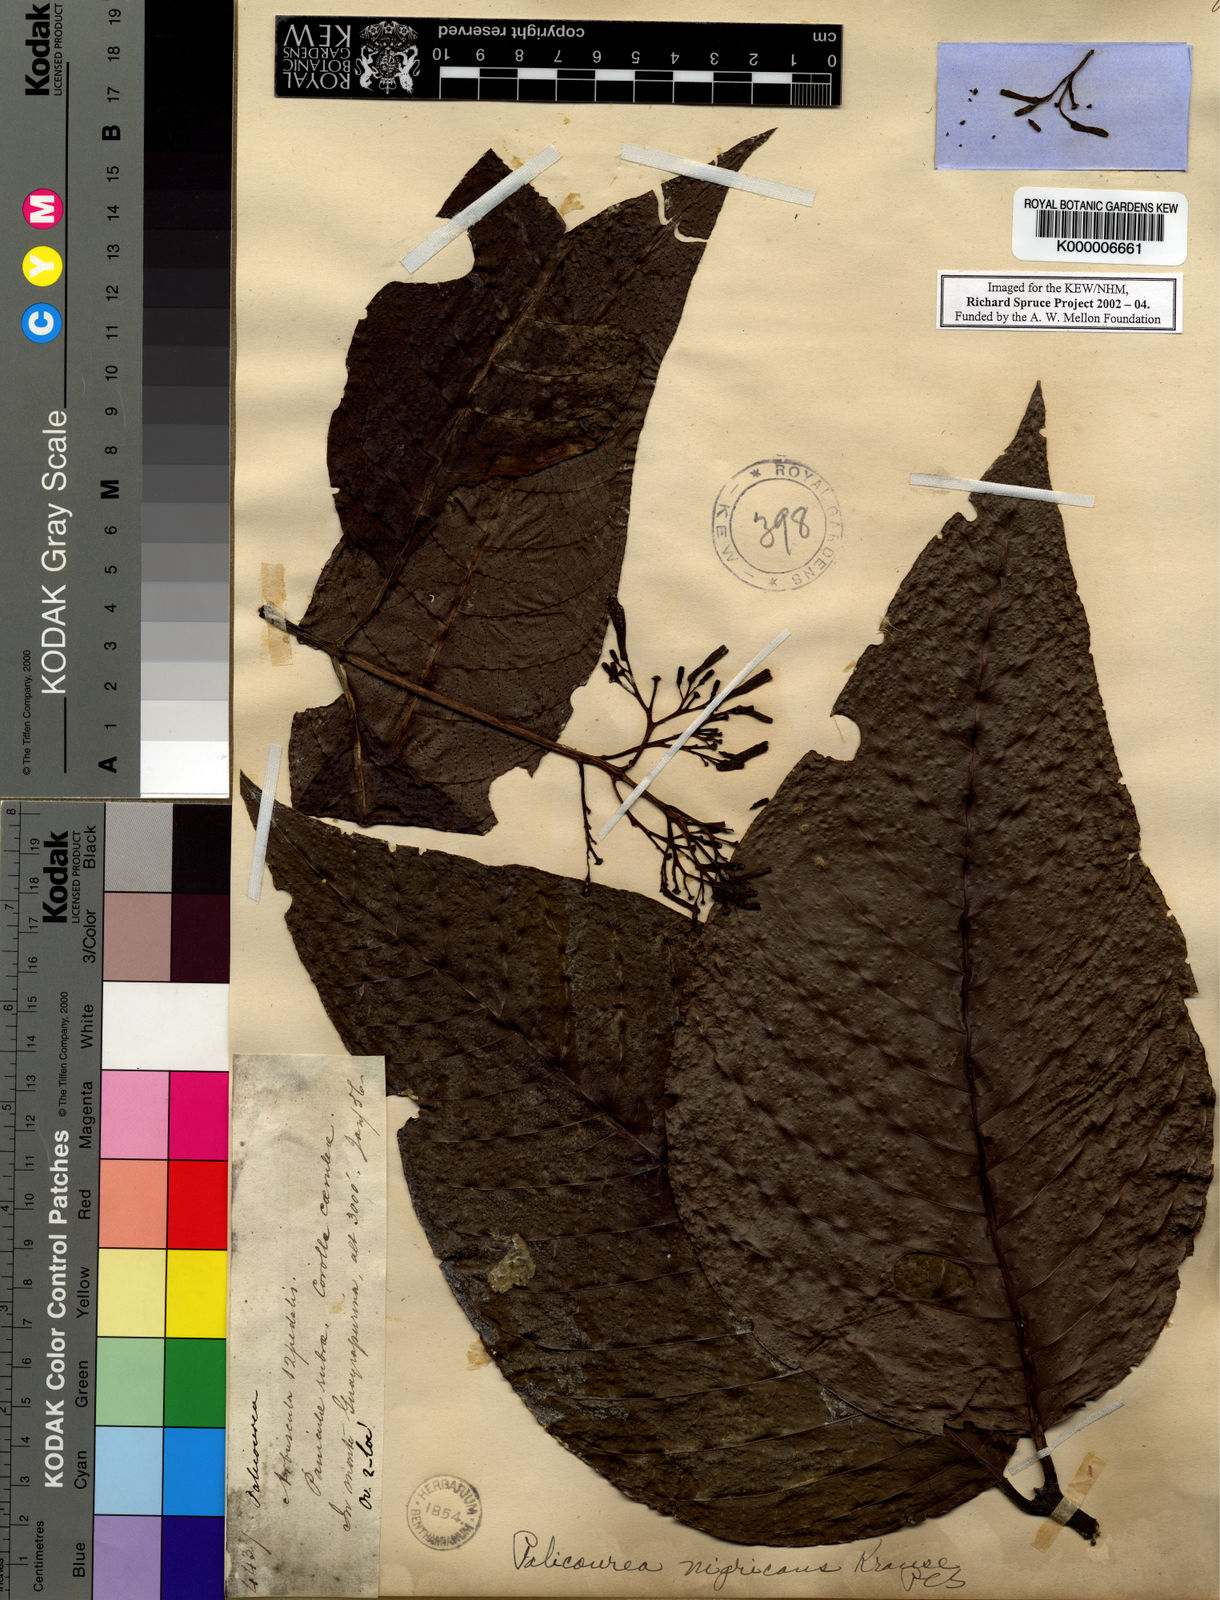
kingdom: Plantae
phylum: Tracheophyta
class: Magnoliopsida
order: Gentianales
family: Rubiaceae
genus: Palicourea
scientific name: Palicourea nigricans
